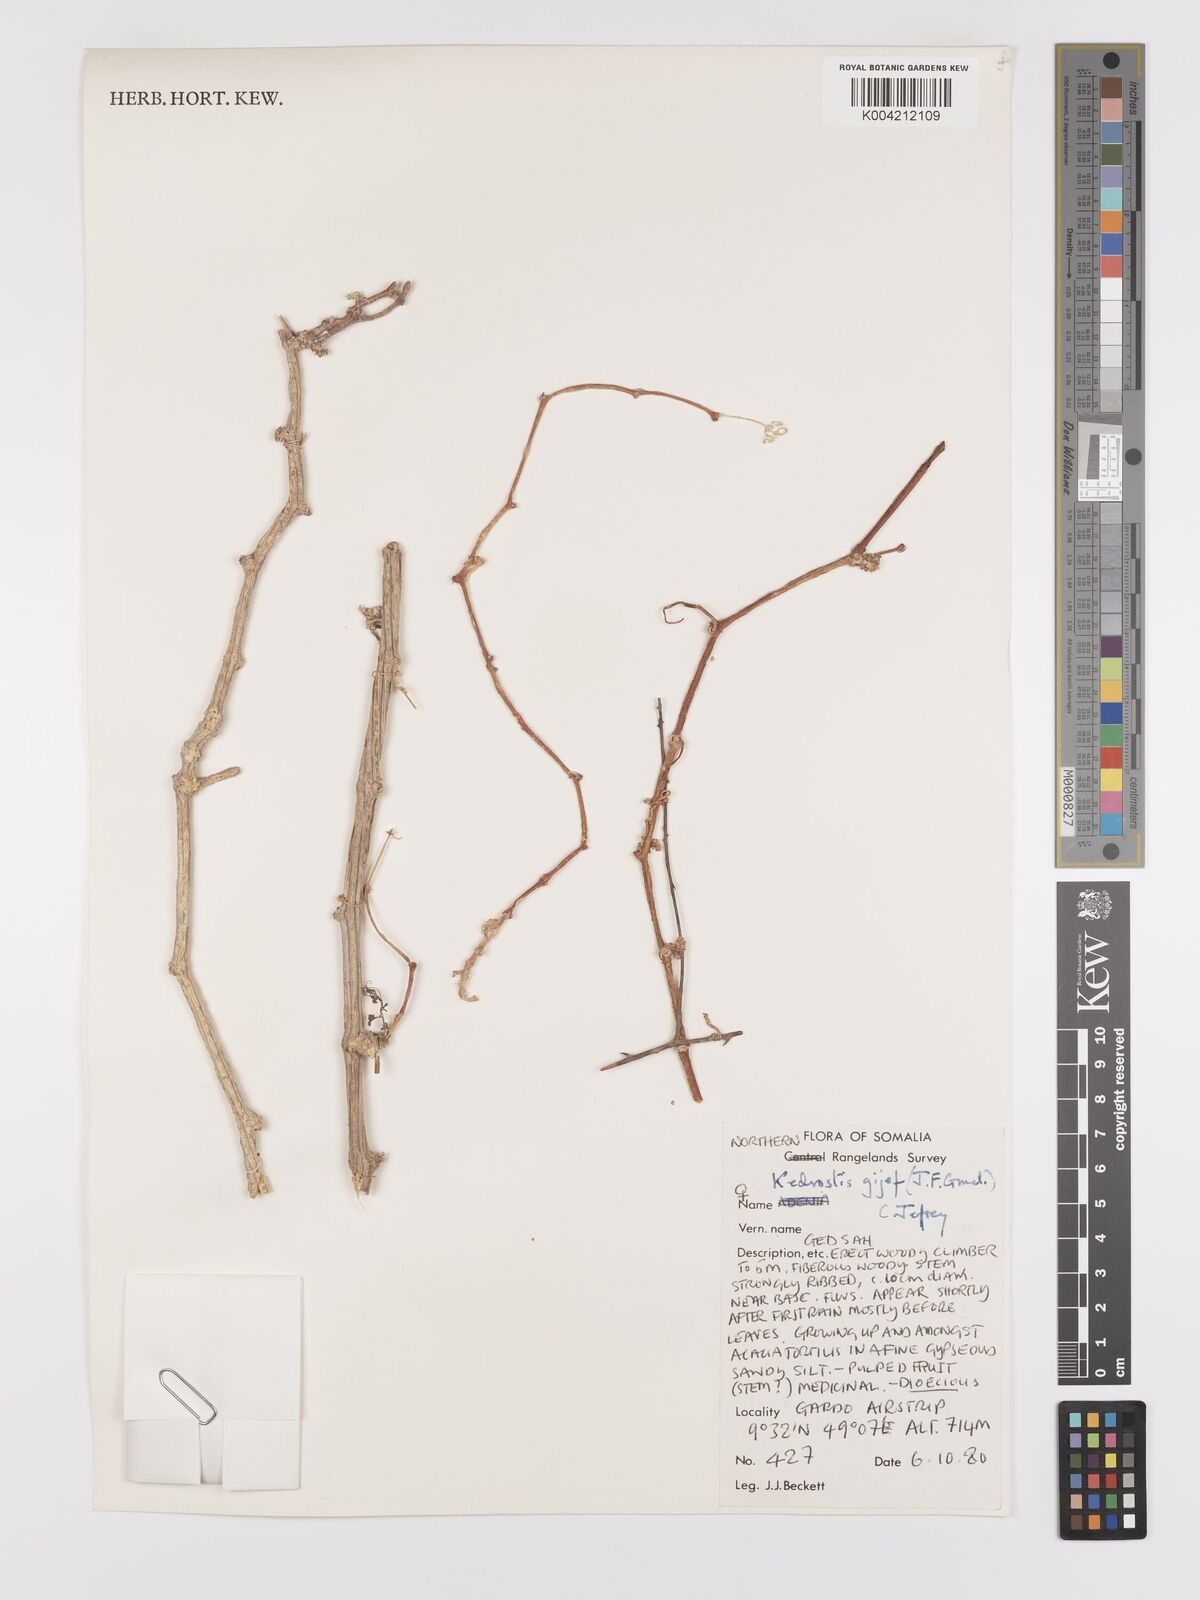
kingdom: Plantae
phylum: Tracheophyta
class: Magnoliopsida
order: Cucurbitales
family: Cucurbitaceae
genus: Kedrostis
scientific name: Kedrostis gijef
